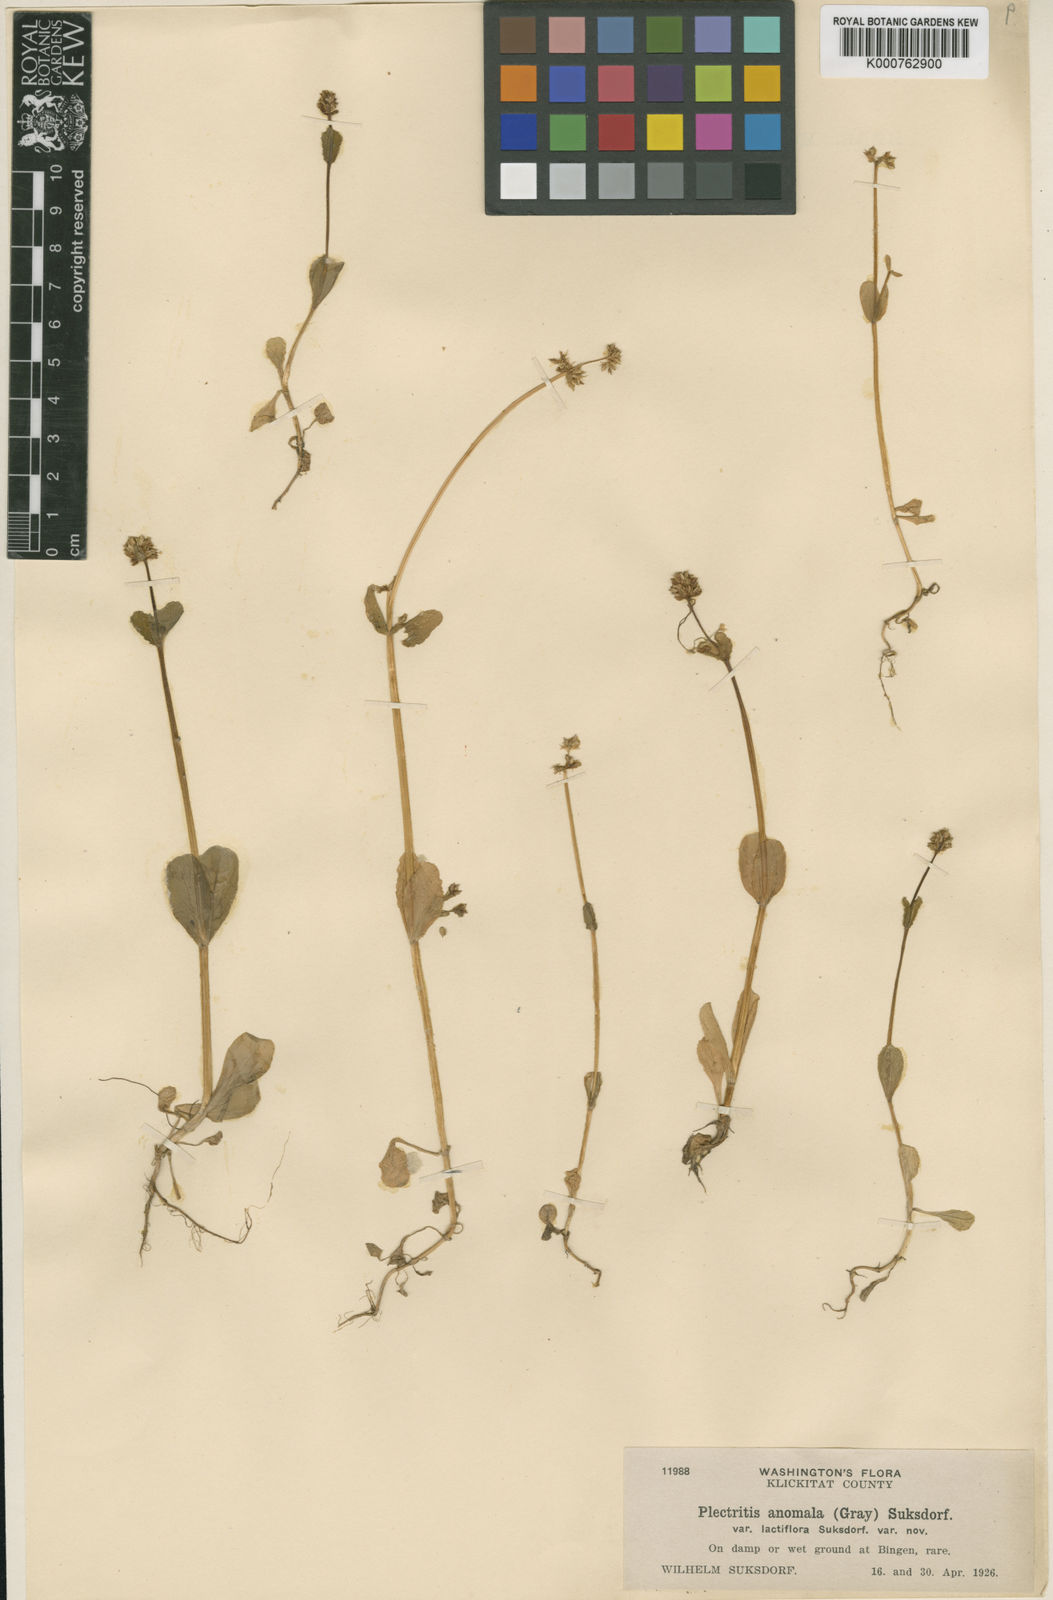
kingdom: Plantae
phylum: Tracheophyta
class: Magnoliopsida
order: Dipsacales
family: Caprifoliaceae
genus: Plectritis
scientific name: Plectritis brachystemon
